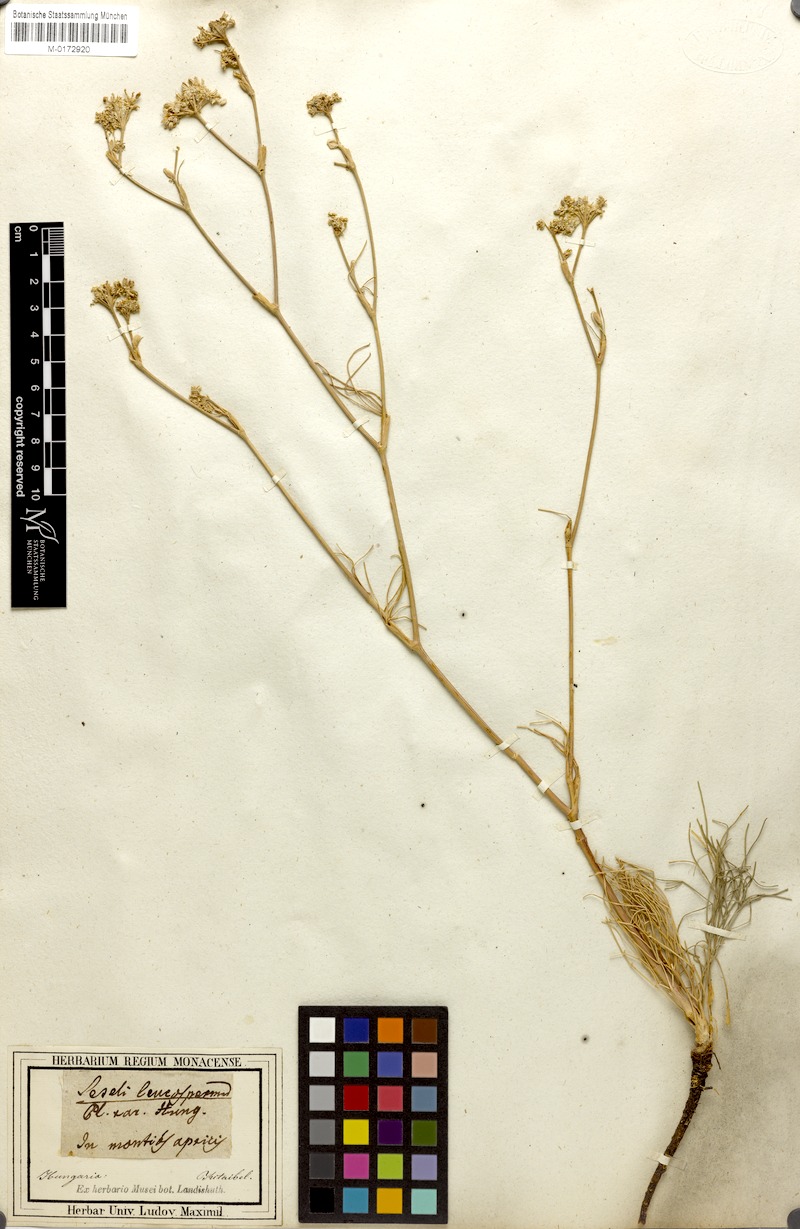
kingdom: Plantae
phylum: Tracheophyta
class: Magnoliopsida
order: Apiales
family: Apiaceae
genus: Seseli
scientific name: Seseli leucospermum
